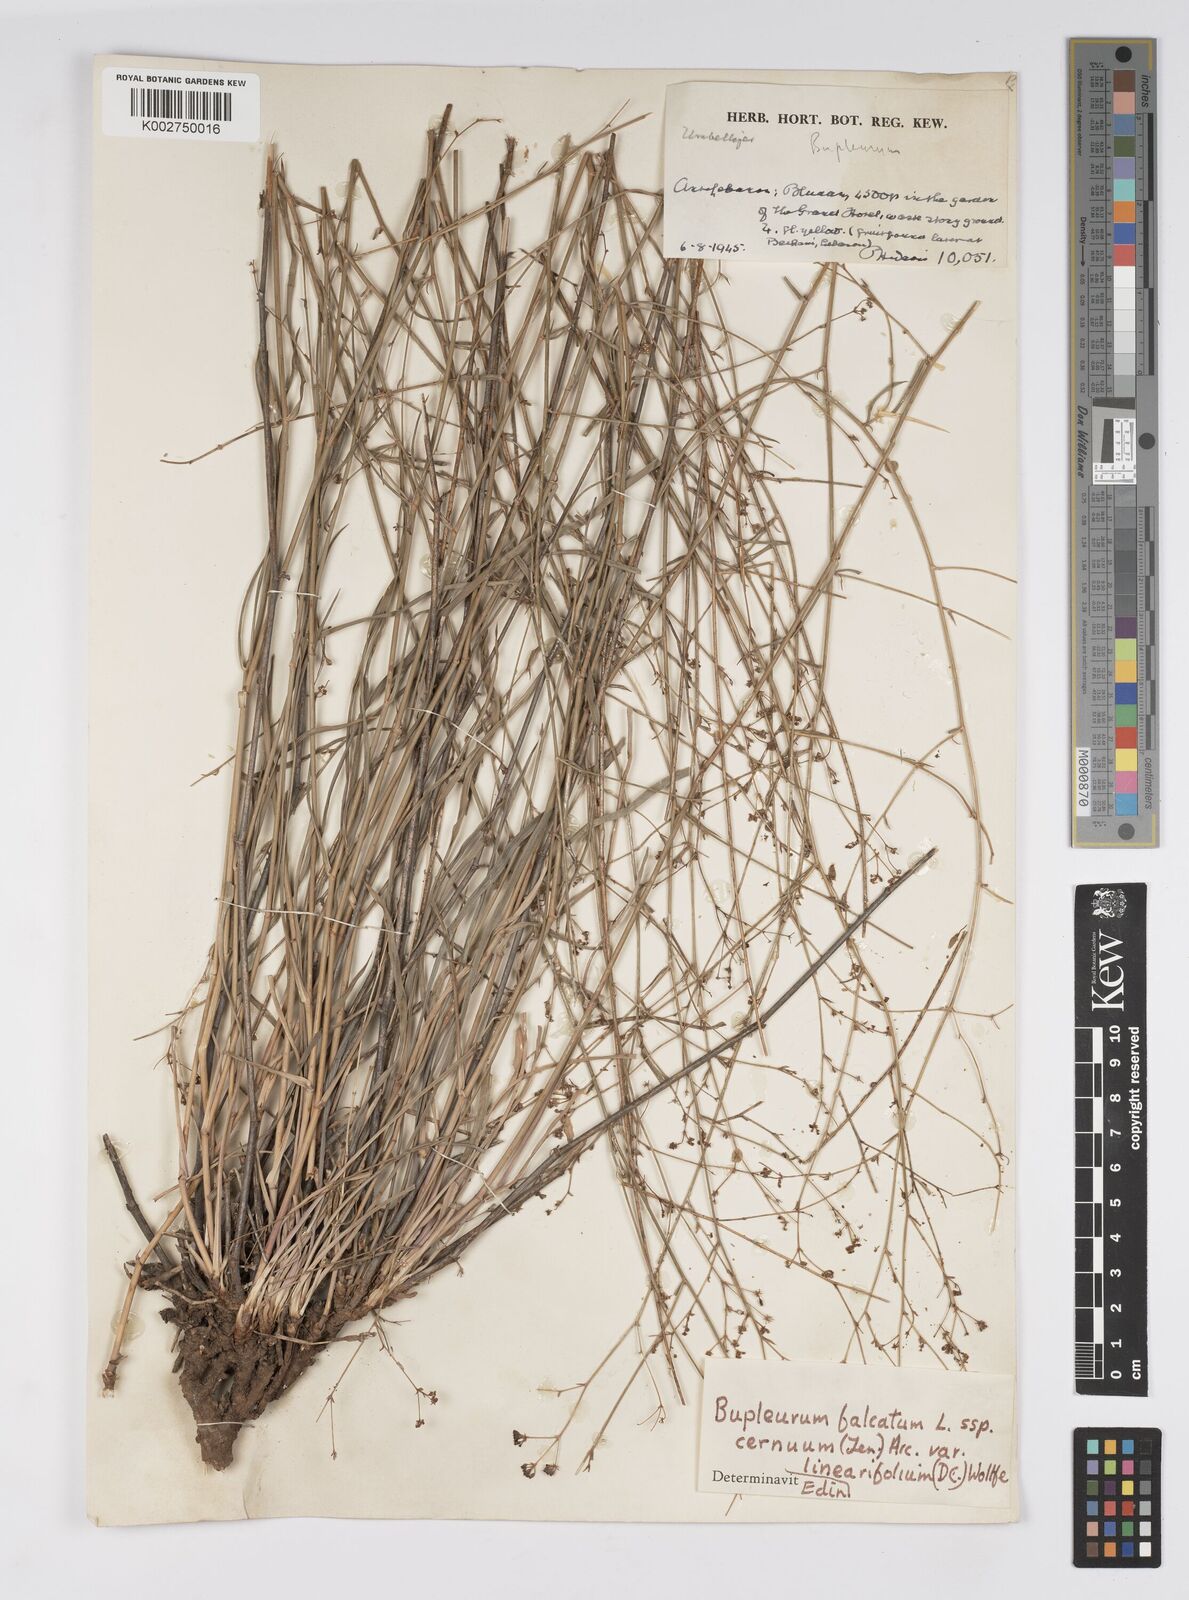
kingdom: Plantae
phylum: Tracheophyta
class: Magnoliopsida
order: Apiales
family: Apiaceae
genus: Bupleurum
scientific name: Bupleurum exaltatum
